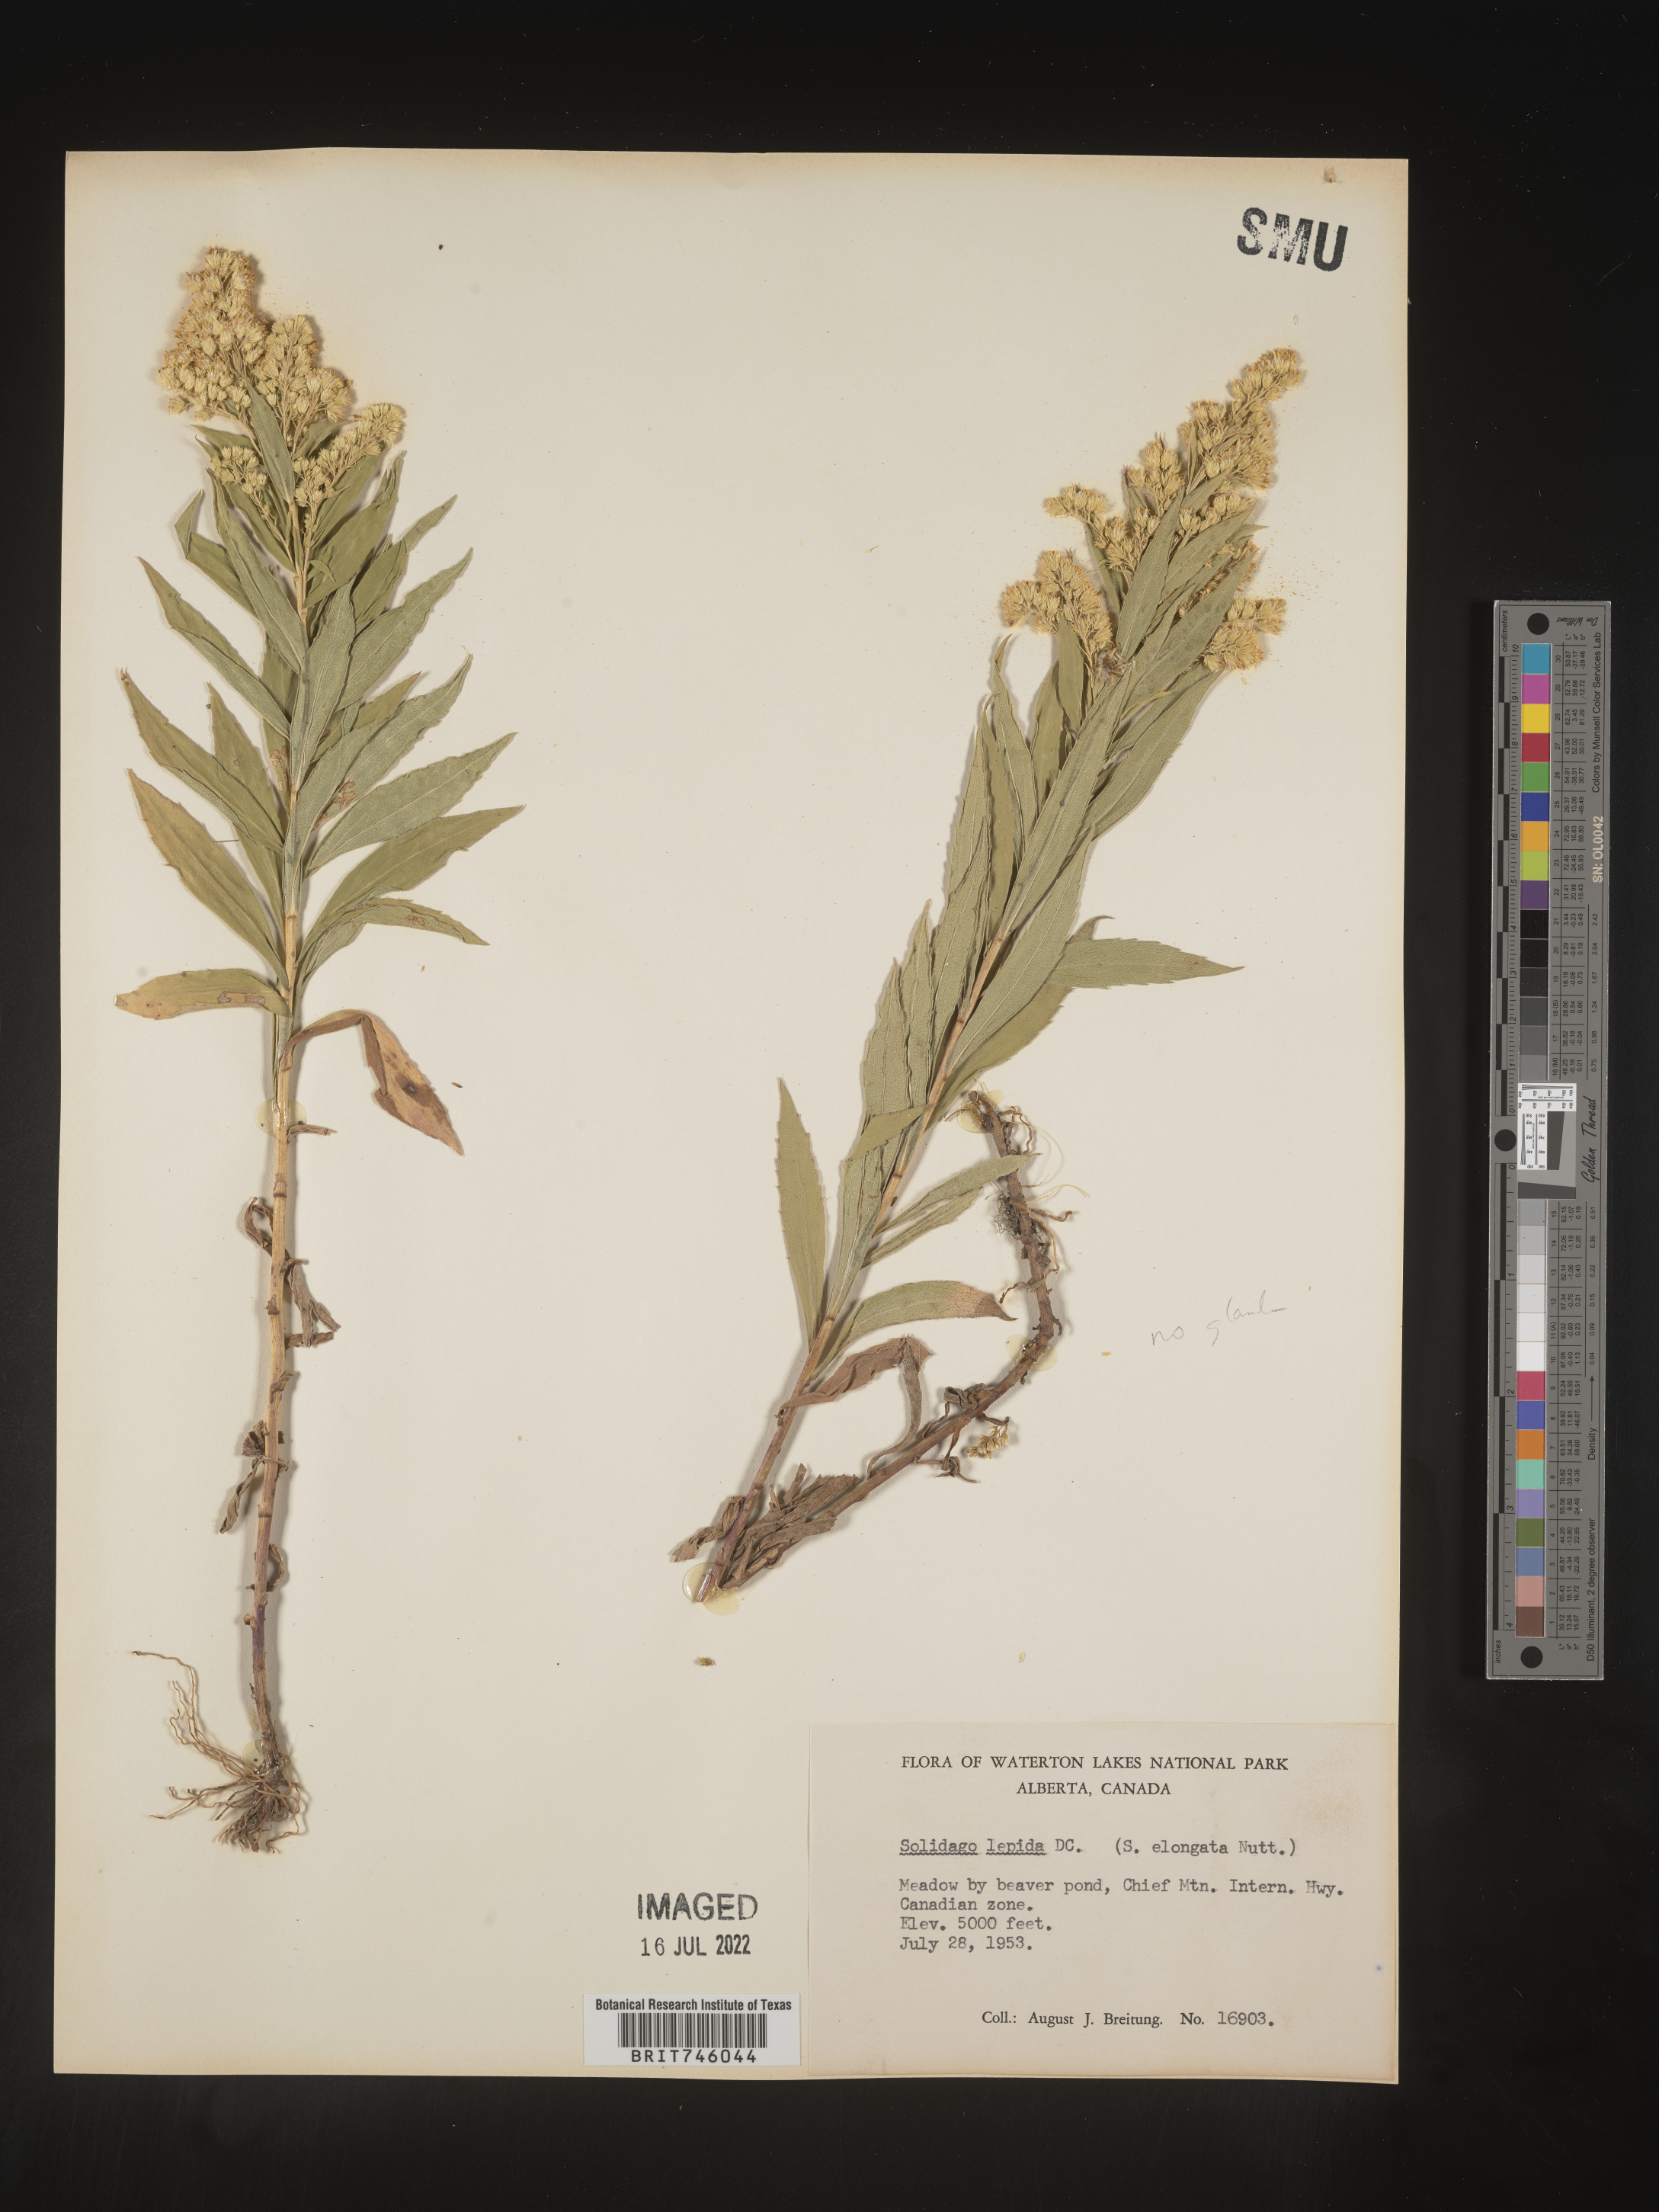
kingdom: Plantae
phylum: Tracheophyta
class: Magnoliopsida
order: Asterales
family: Asteraceae
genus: Solidago
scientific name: Solidago elongata
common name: Cascade canada goldenrod
